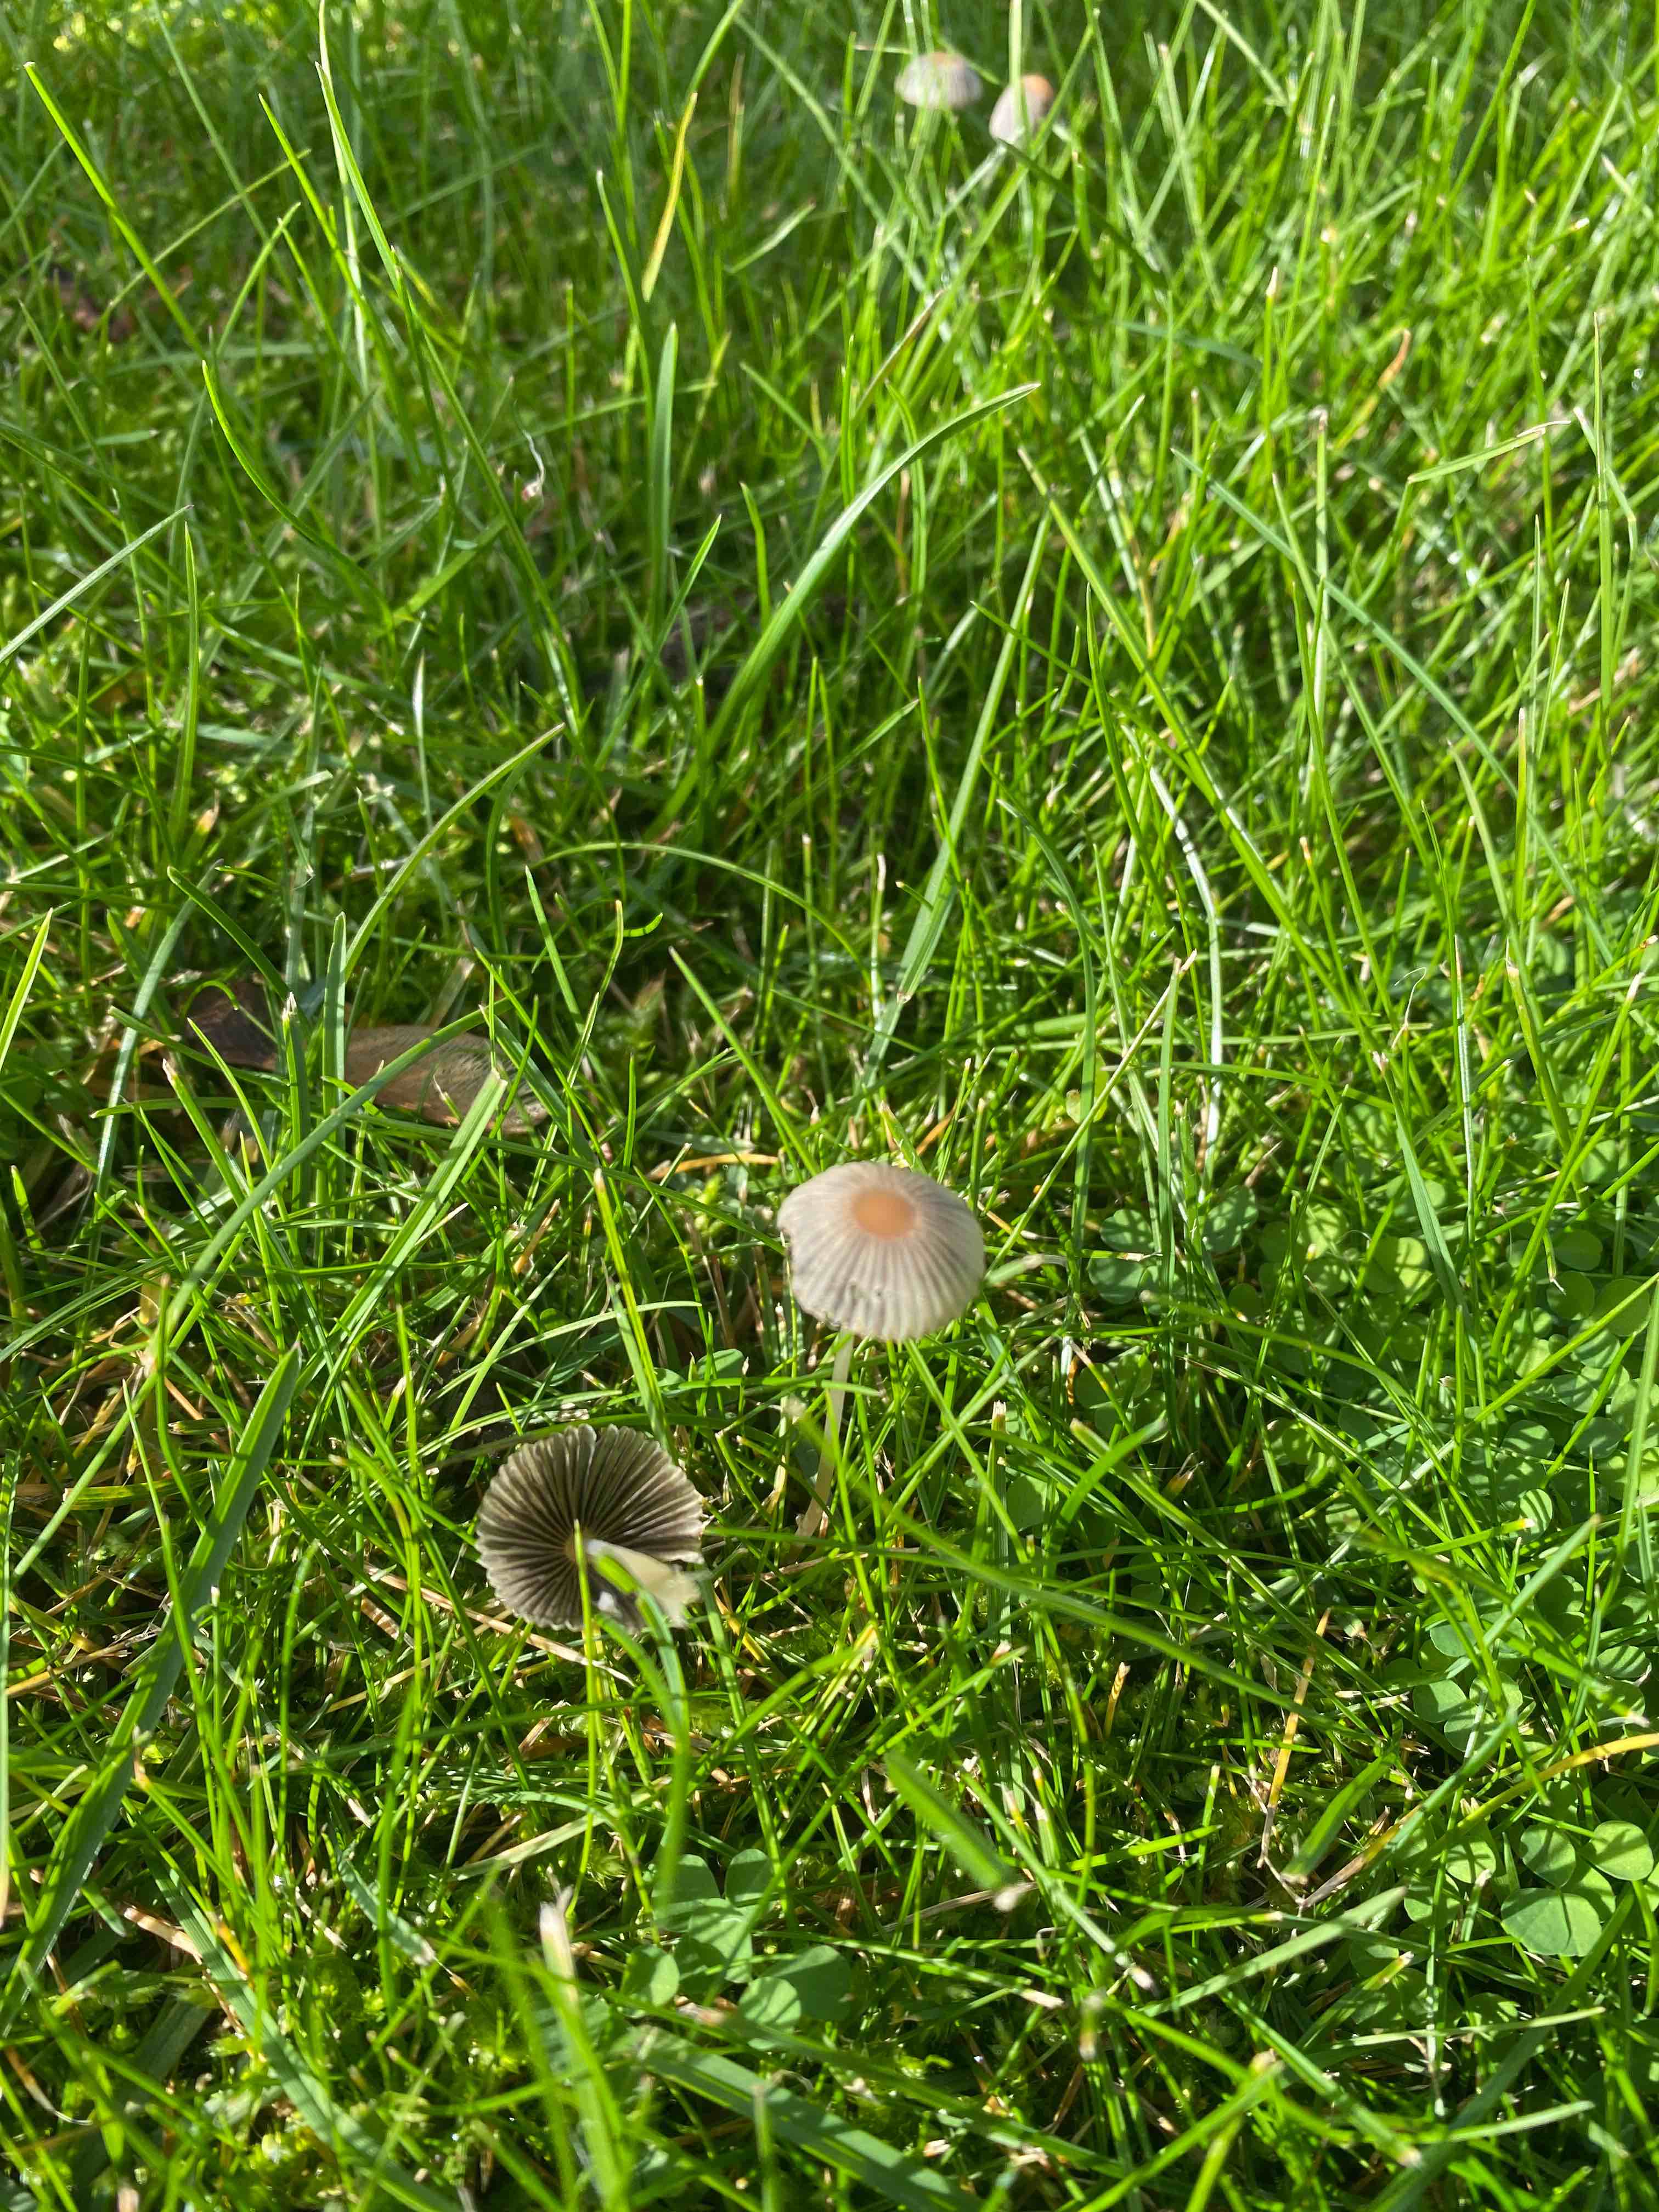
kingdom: Fungi
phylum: Basidiomycota
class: Agaricomycetes
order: Agaricales
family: Psathyrellaceae
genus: Parasola
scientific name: Parasola
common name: hjulhat
